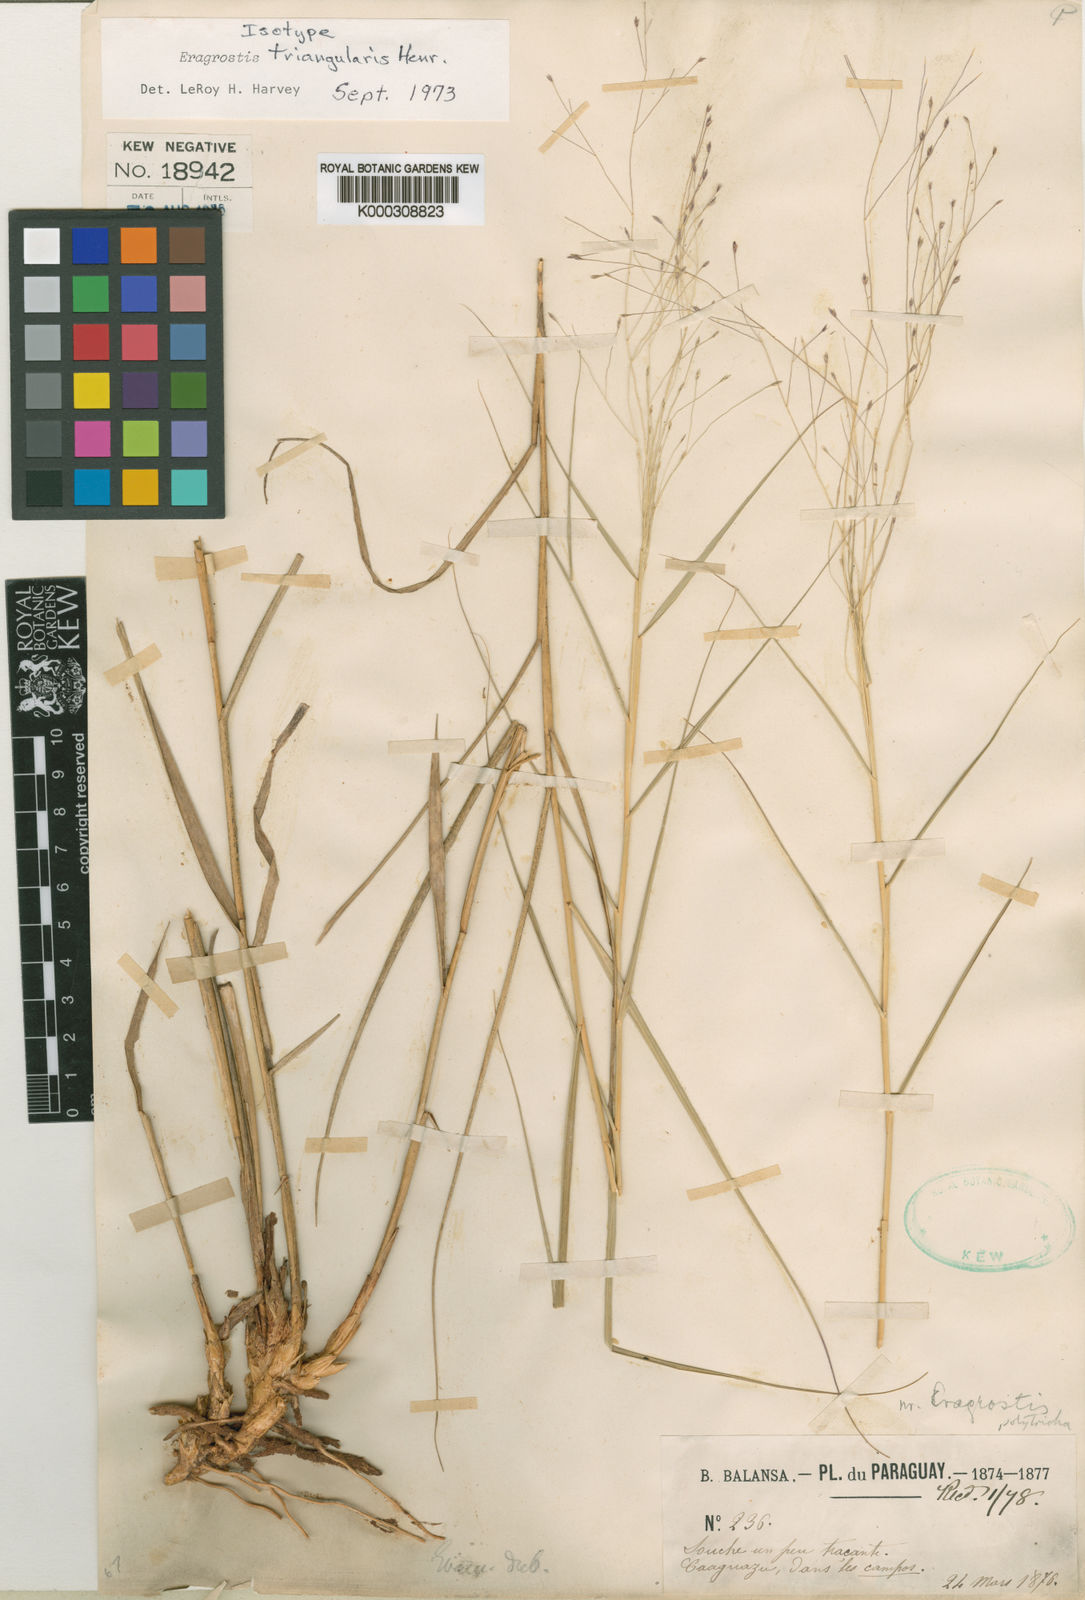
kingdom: Plantae
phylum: Tracheophyta
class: Liliopsida
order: Poales
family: Poaceae
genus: Eragrostis
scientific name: Eragrostis triangularis
